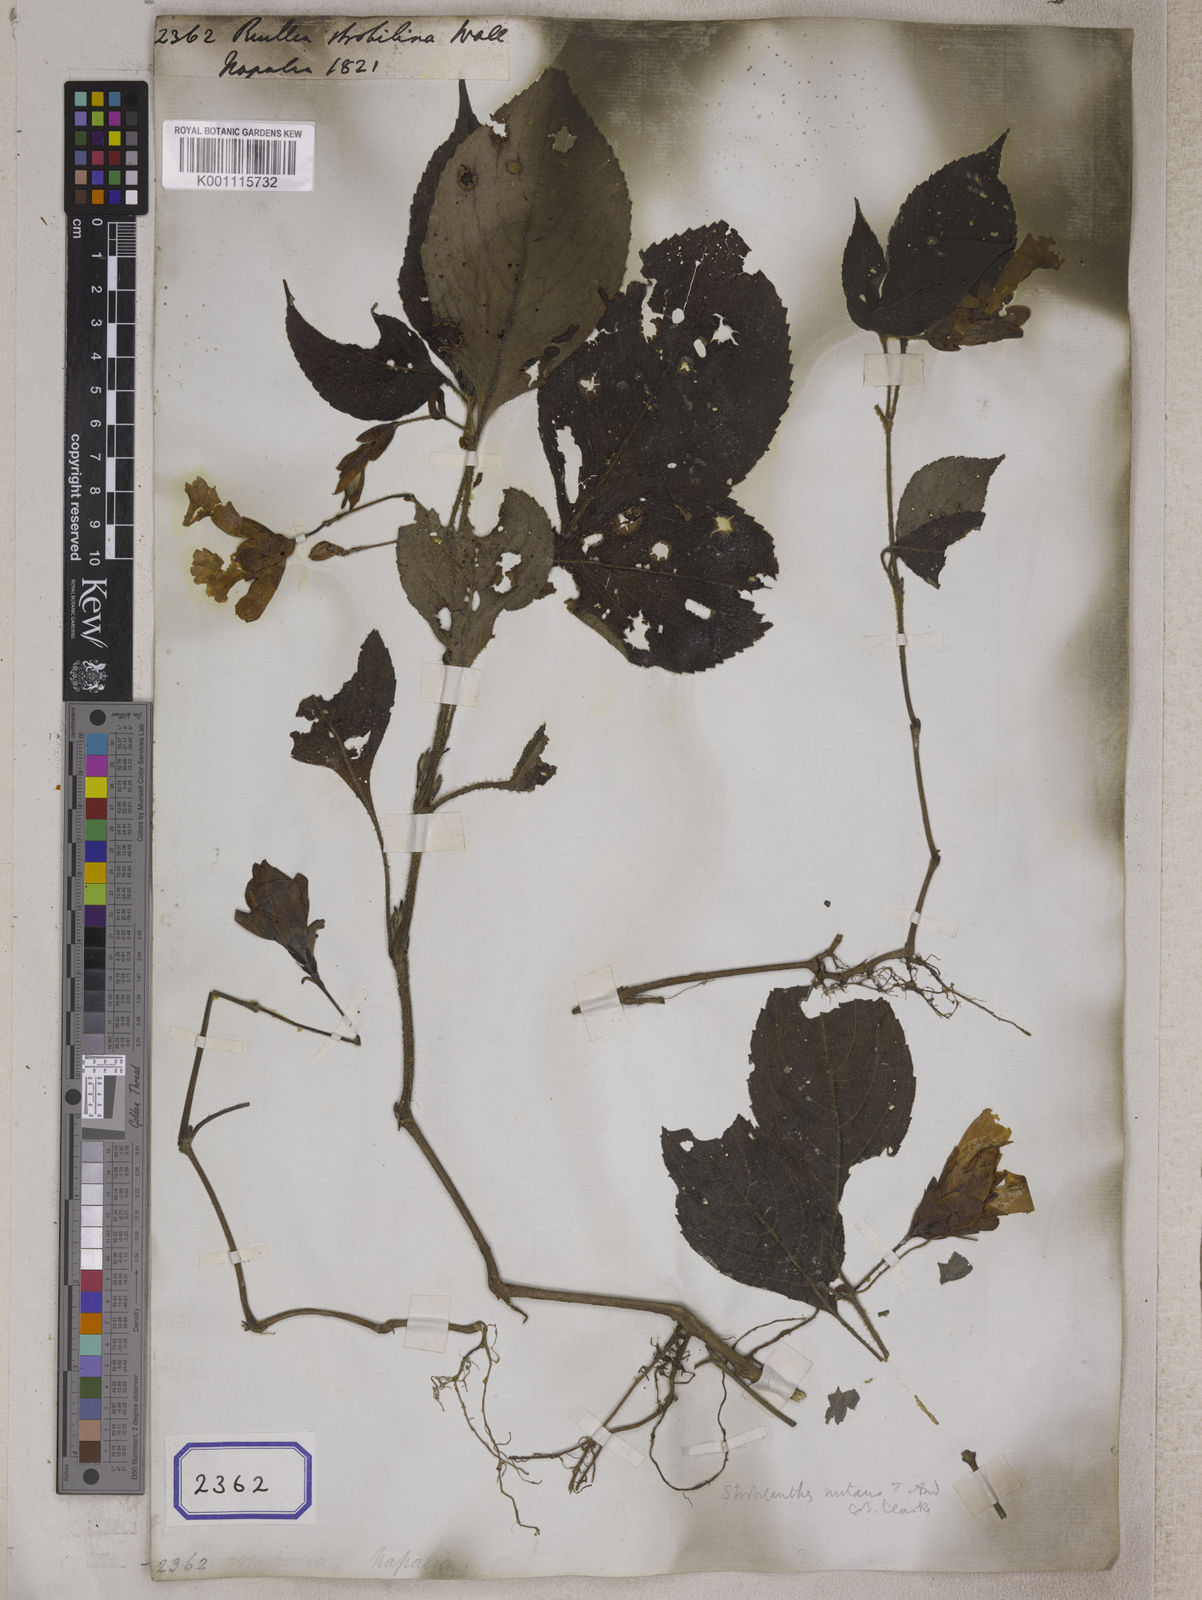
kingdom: Plantae
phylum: Tracheophyta
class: Magnoliopsida
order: Lamiales
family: Acanthaceae
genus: Strobilanthes
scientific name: Strobilanthes nutans
